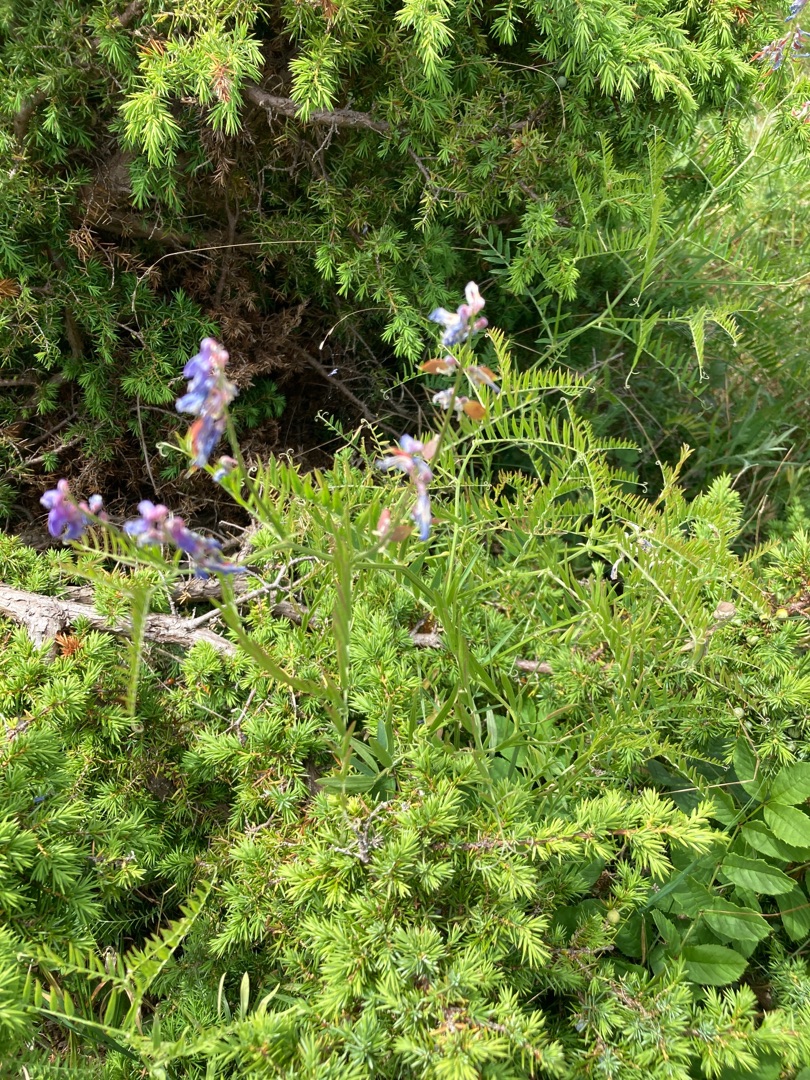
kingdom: Plantae
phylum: Tracheophyta
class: Magnoliopsida
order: Fabales
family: Fabaceae
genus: Vicia
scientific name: Vicia tenuifolia
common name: Langklaset vikke
